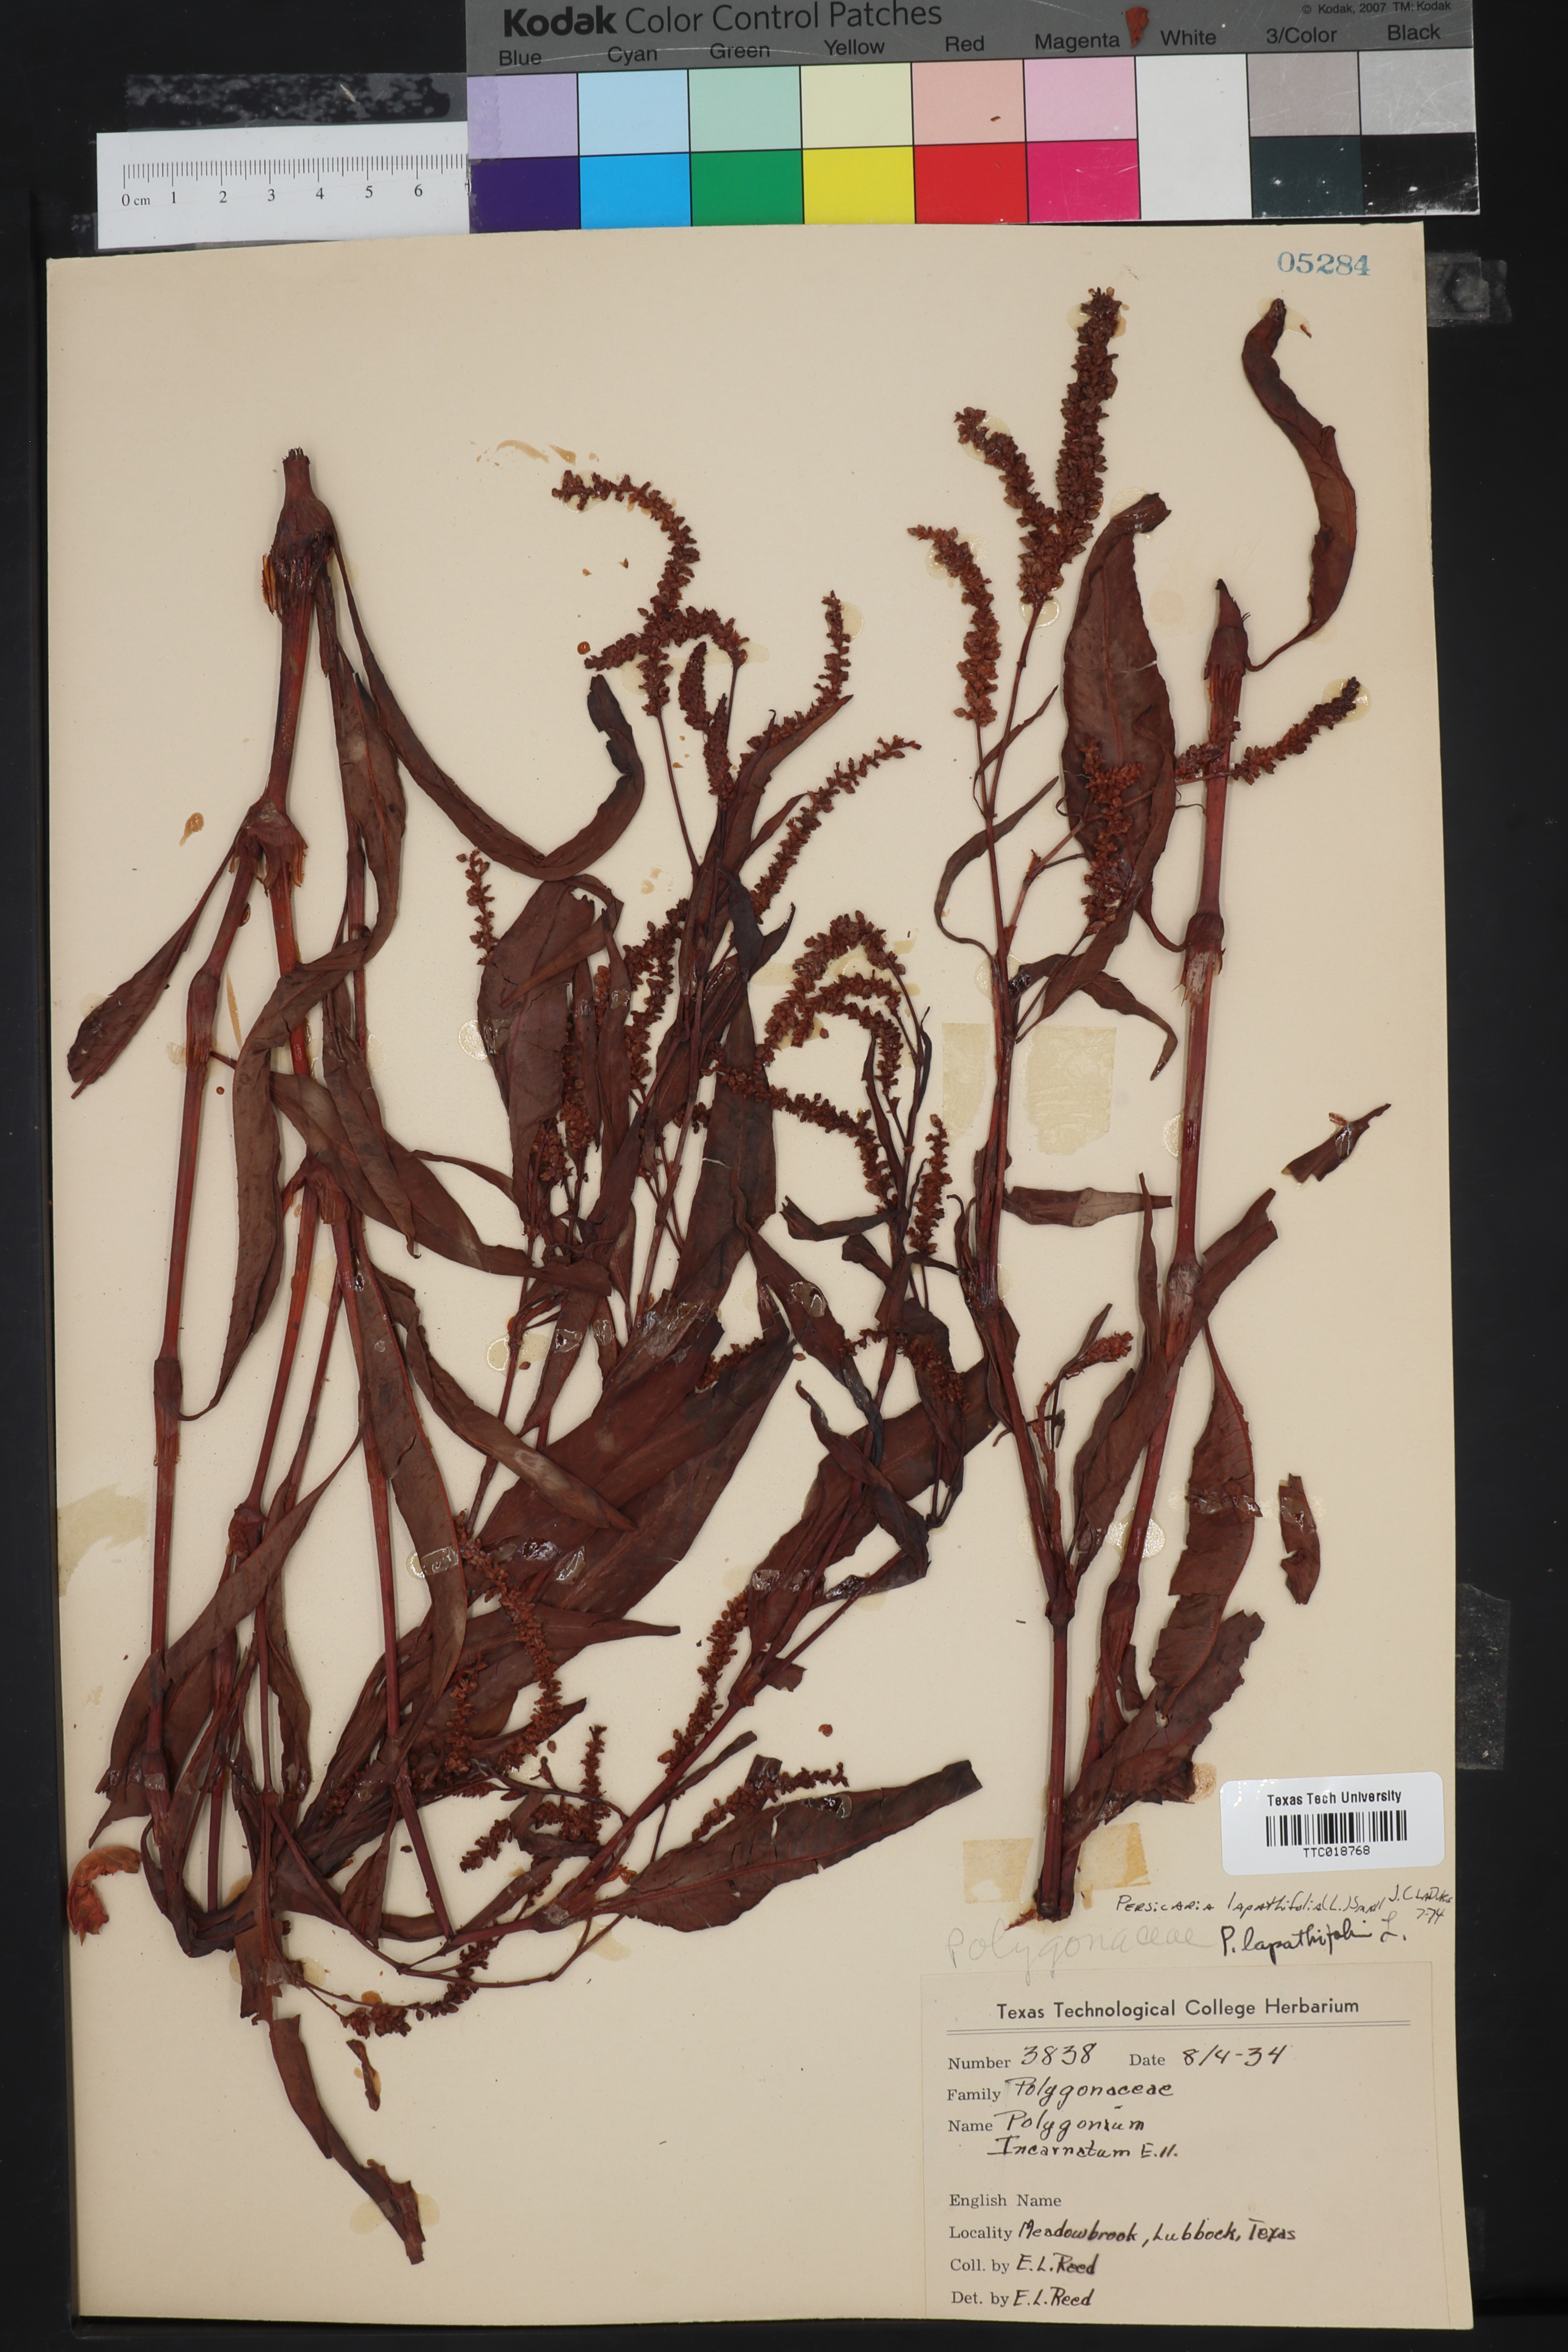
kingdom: Plantae
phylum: Tracheophyta
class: Magnoliopsida
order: Caryophyllales
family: Polygonaceae
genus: Persicaria
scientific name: Persicaria lapathifolia
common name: Curlytop knotweed
